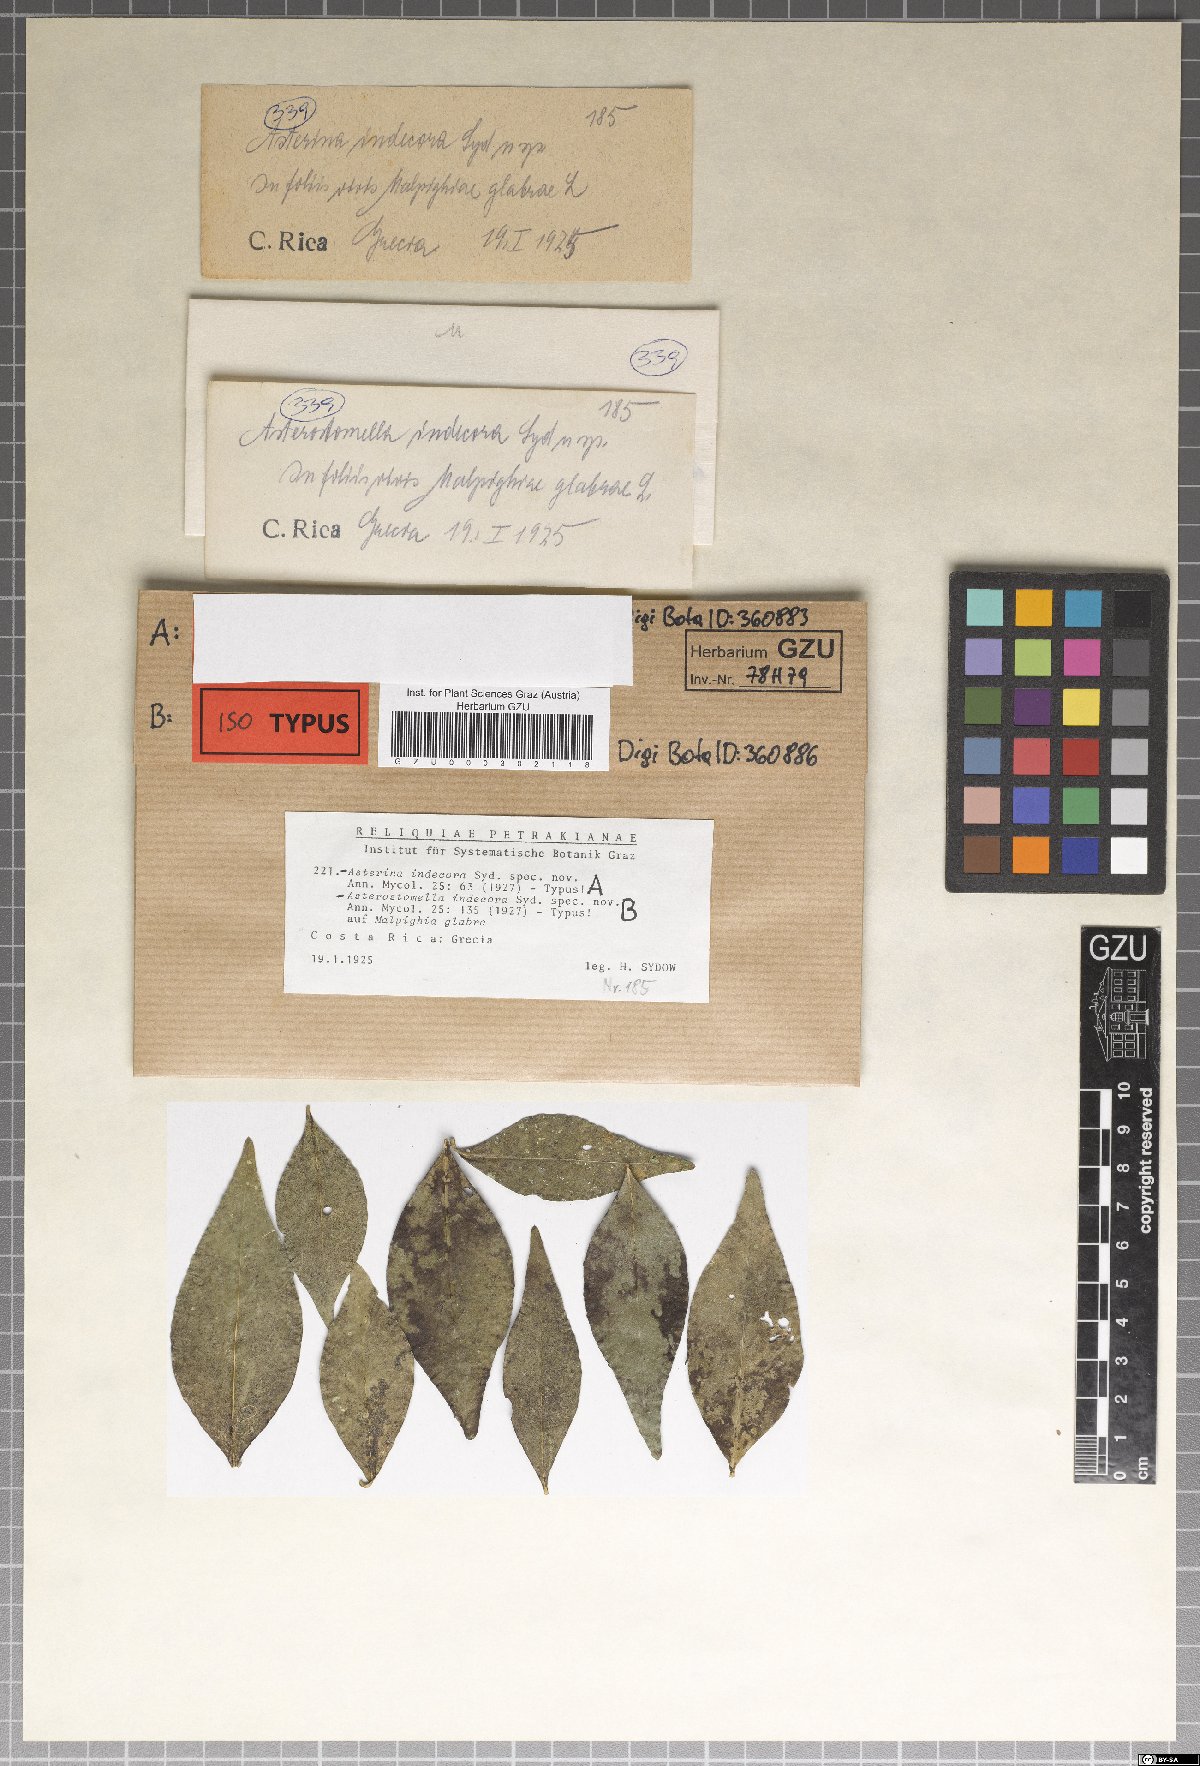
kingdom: Fungi
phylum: Ascomycota
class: Dothideomycetes
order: Asterinales
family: Asterinaceae
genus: Asterostomella
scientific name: Asterostomella indecora
